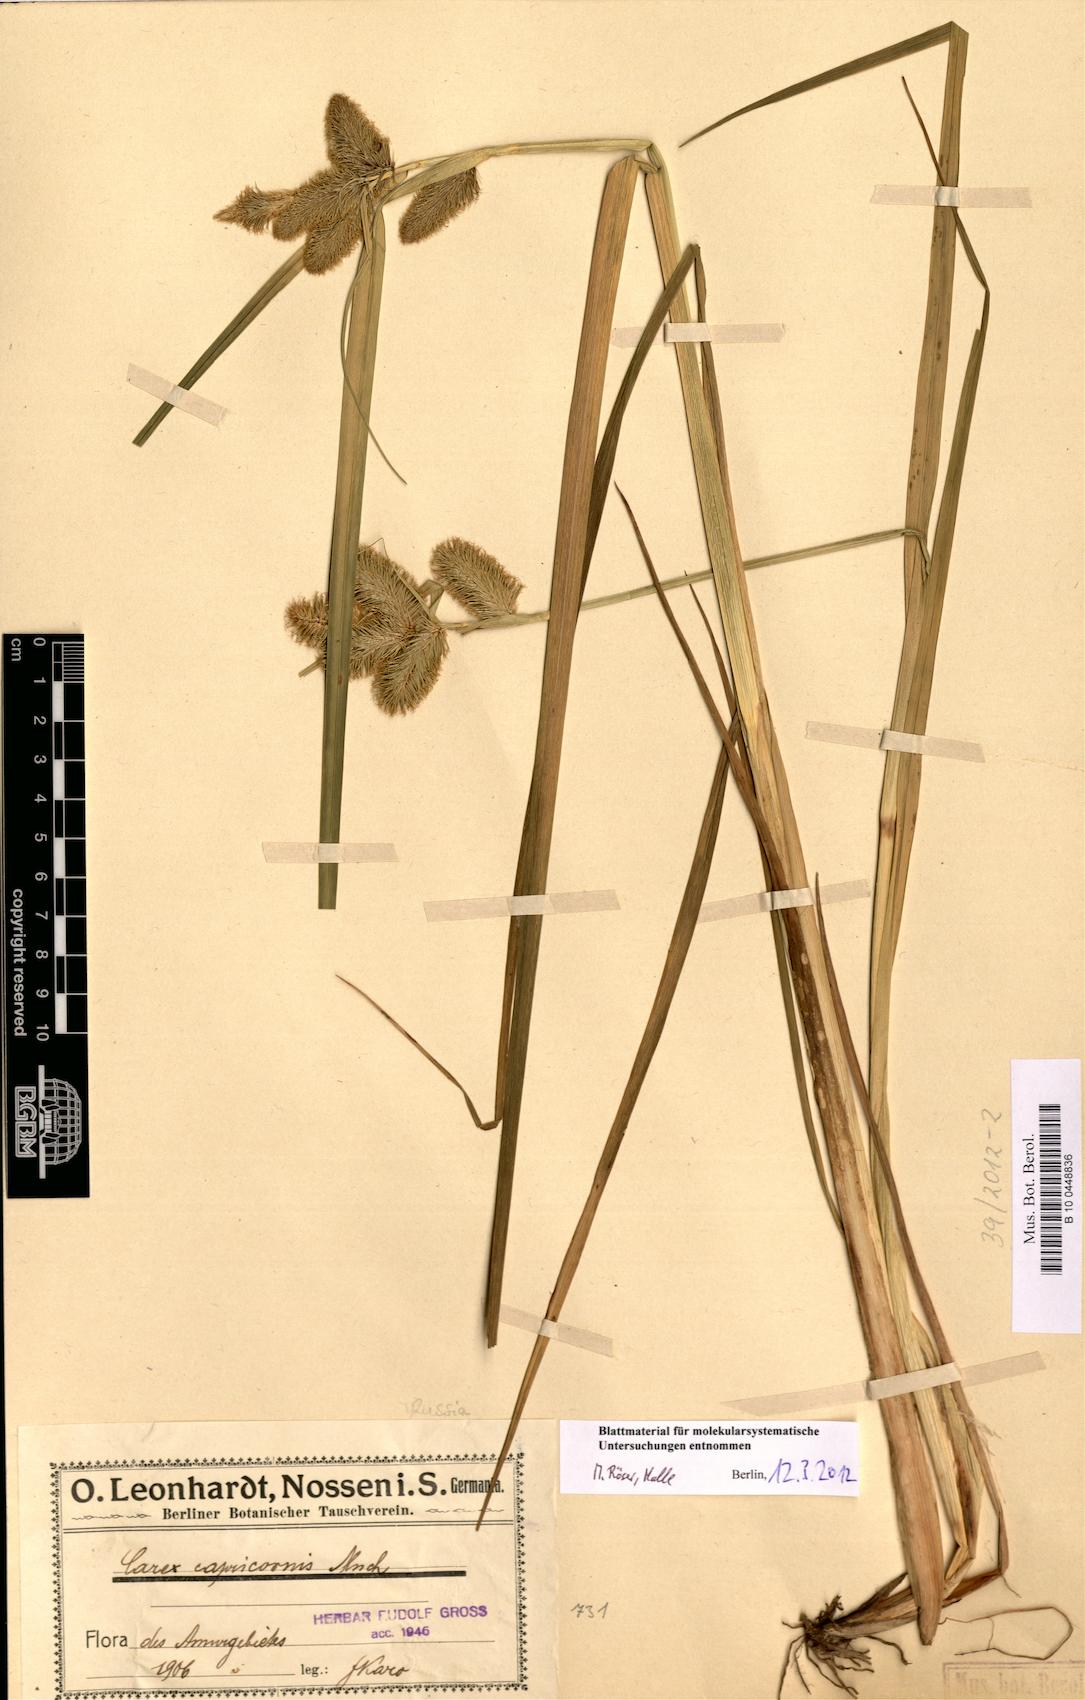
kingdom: Plantae
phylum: Tracheophyta
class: Liliopsida
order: Poales
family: Cyperaceae
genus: Carex
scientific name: Carex capricornis
